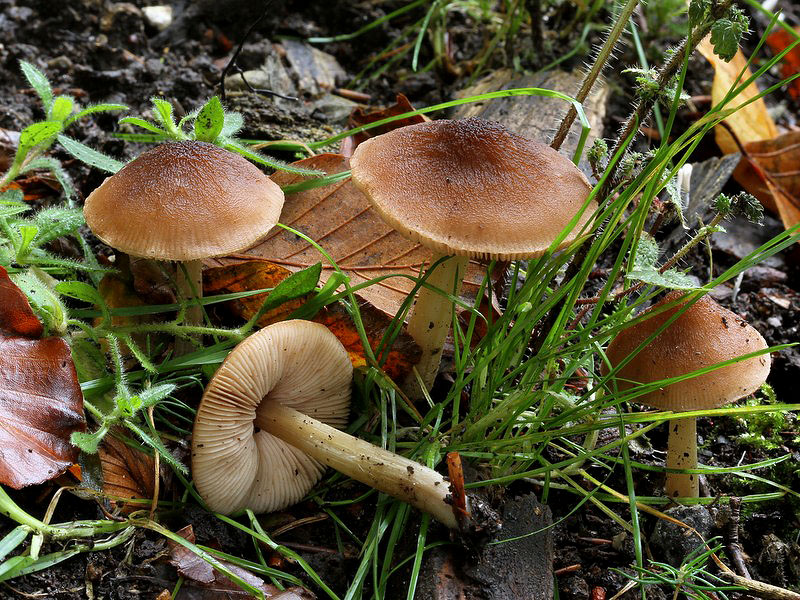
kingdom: Fungi
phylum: Basidiomycota
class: Agaricomycetes
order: Agaricales
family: Pluteaceae
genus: Pluteus
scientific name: Pluteus phlebophorus
